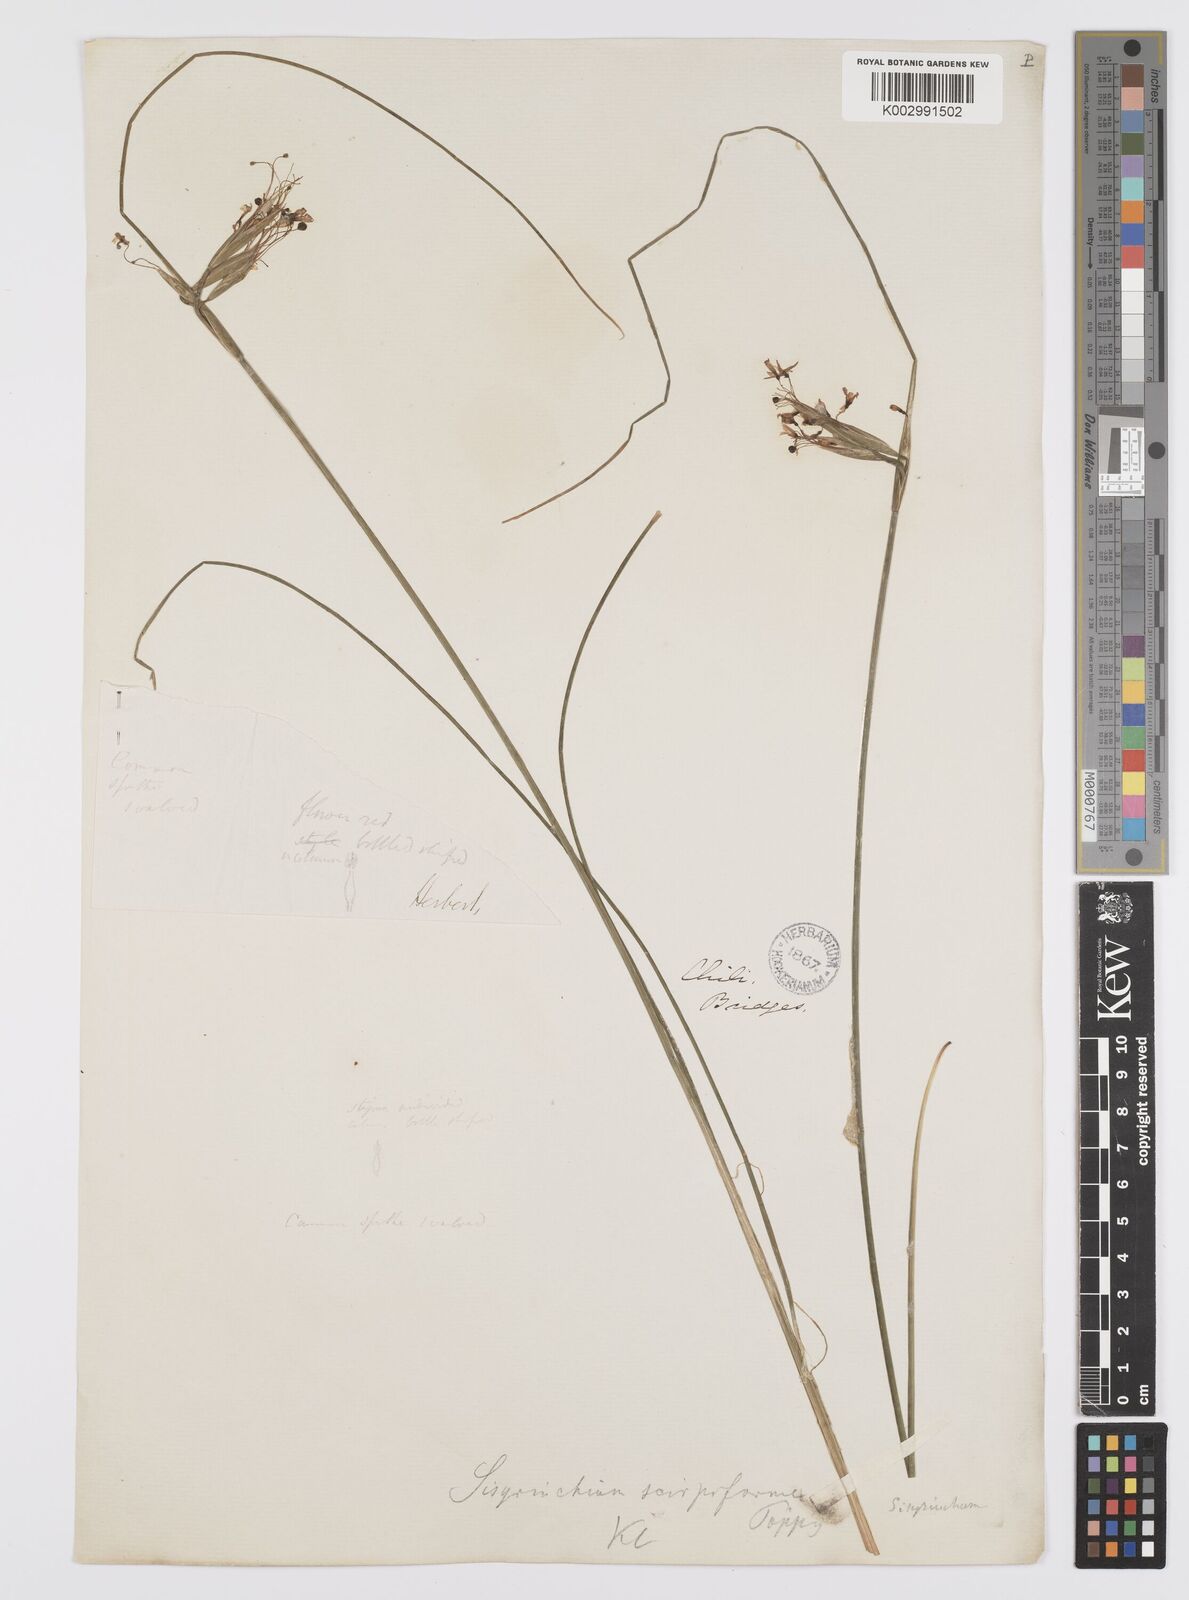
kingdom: Plantae
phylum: Tracheophyta
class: Liliopsida
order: Asparagales
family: Iridaceae
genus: Olsynium
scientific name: Olsynium junceum
